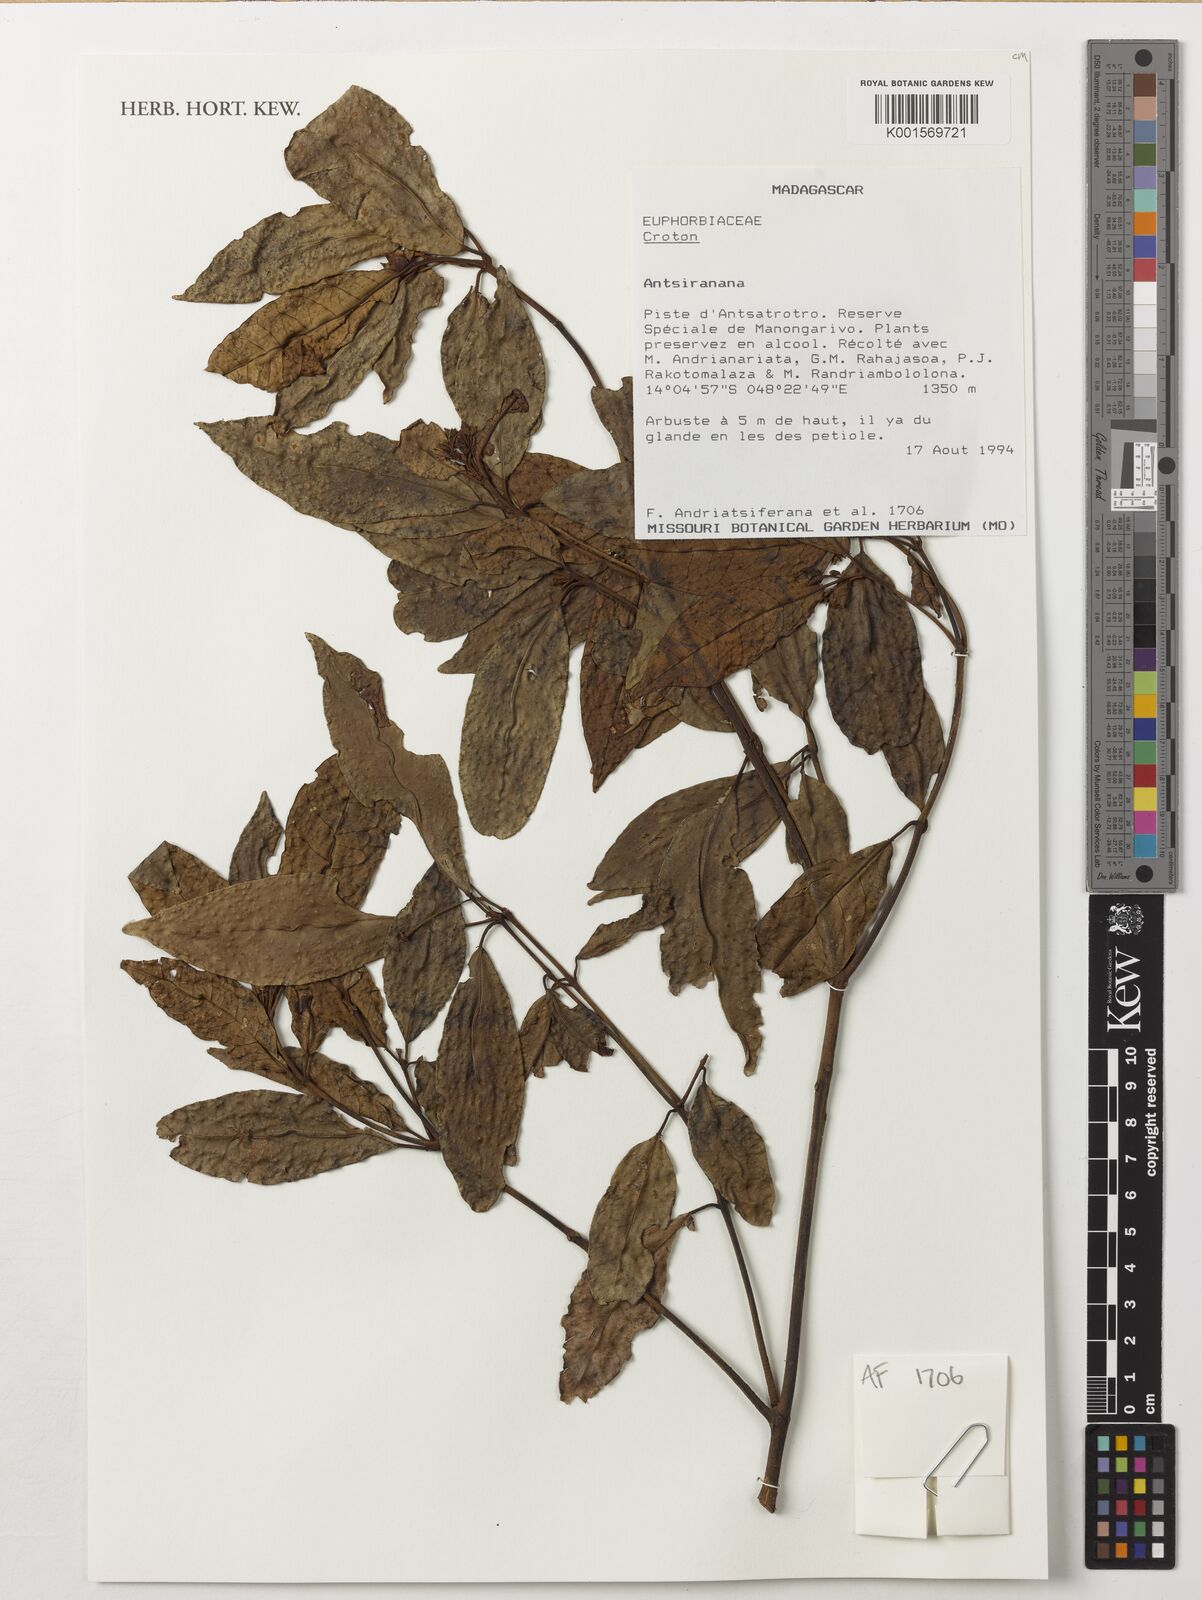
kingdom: Plantae
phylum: Tracheophyta
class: Magnoliopsida
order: Malpighiales
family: Euphorbiaceae
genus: Croton
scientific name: Croton
